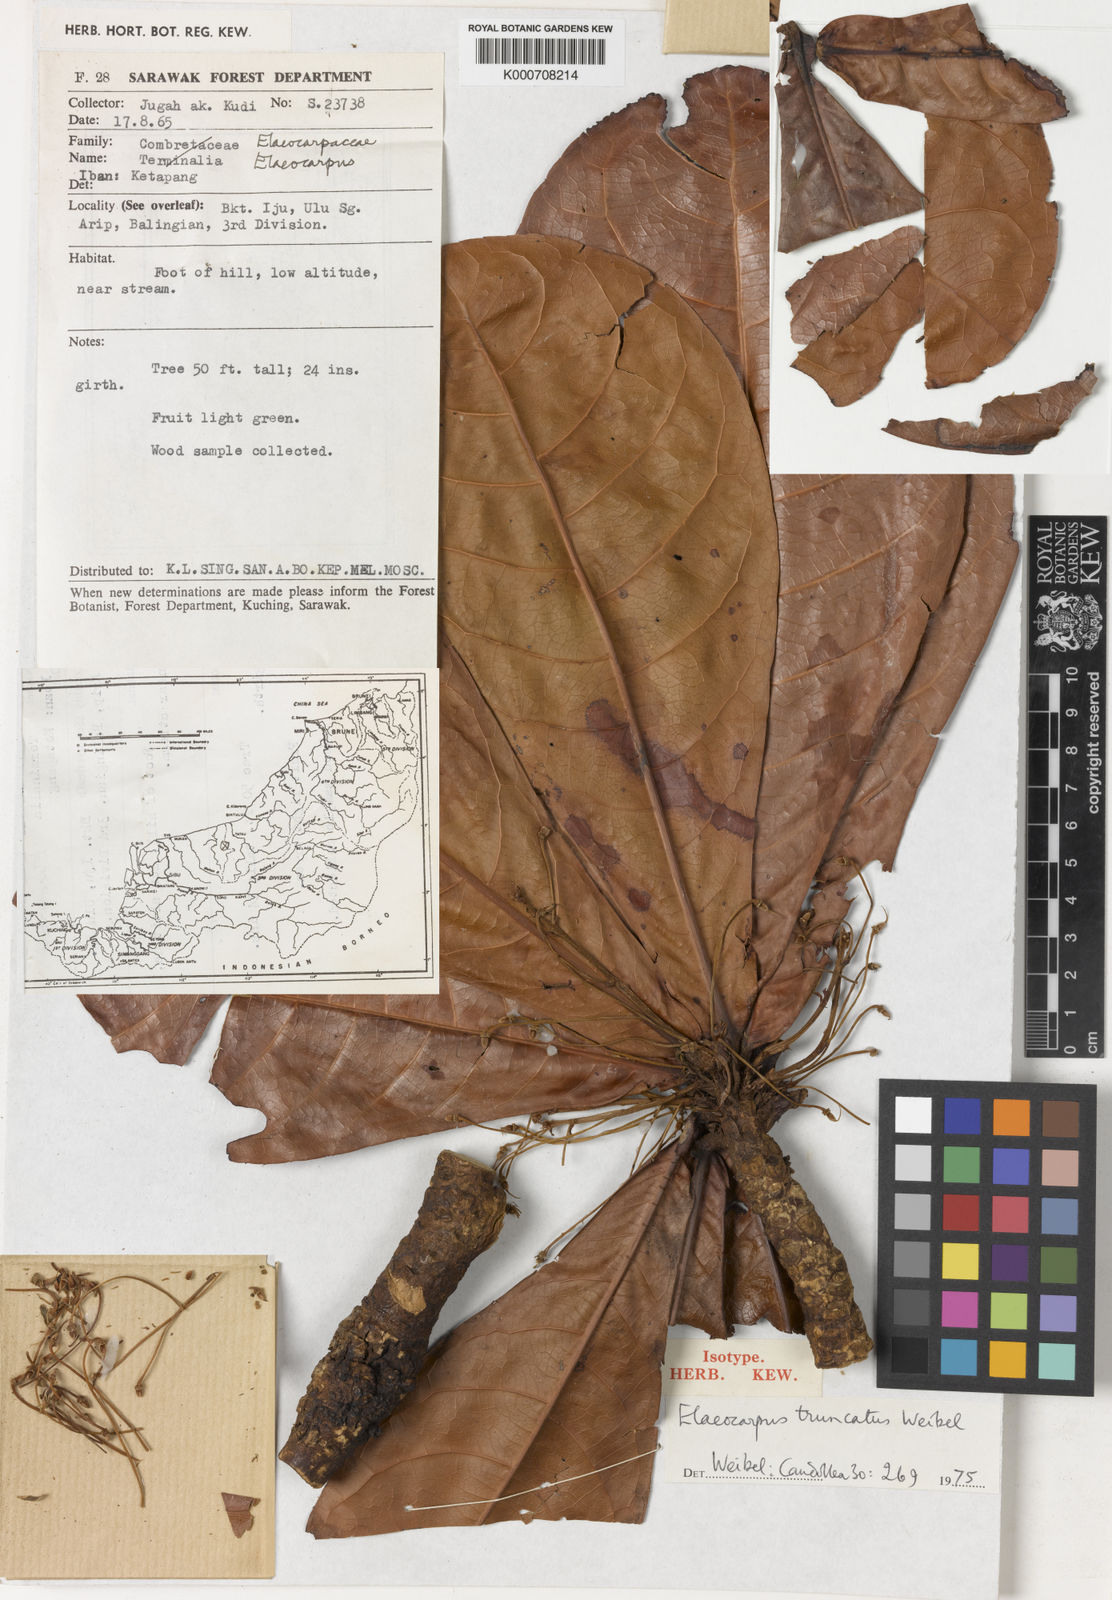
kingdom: Plantae
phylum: Tracheophyta
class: Magnoliopsida
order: Oxalidales
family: Elaeocarpaceae
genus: Elaeocarpus
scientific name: Elaeocarpus truncatus
